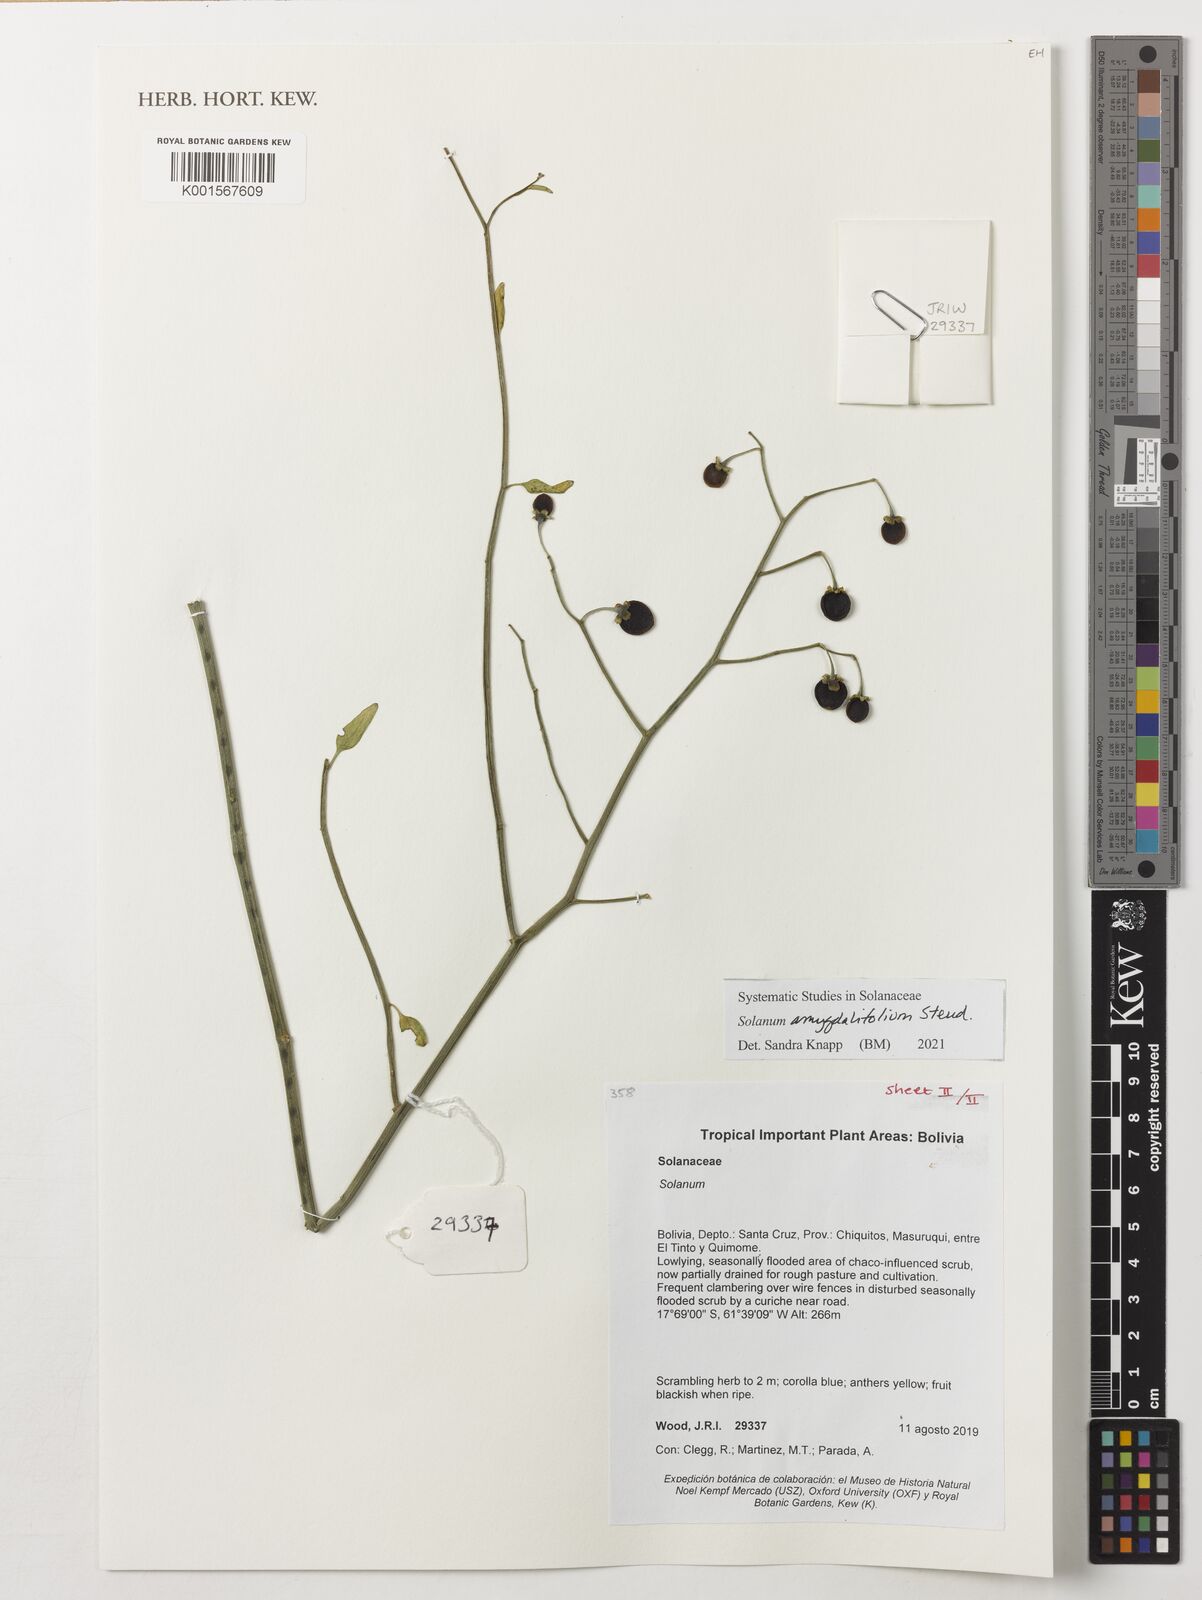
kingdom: Plantae
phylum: Tracheophyta
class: Magnoliopsida
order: Solanales
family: Solanaceae
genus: Solanum
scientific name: Solanum amygdalifolium
